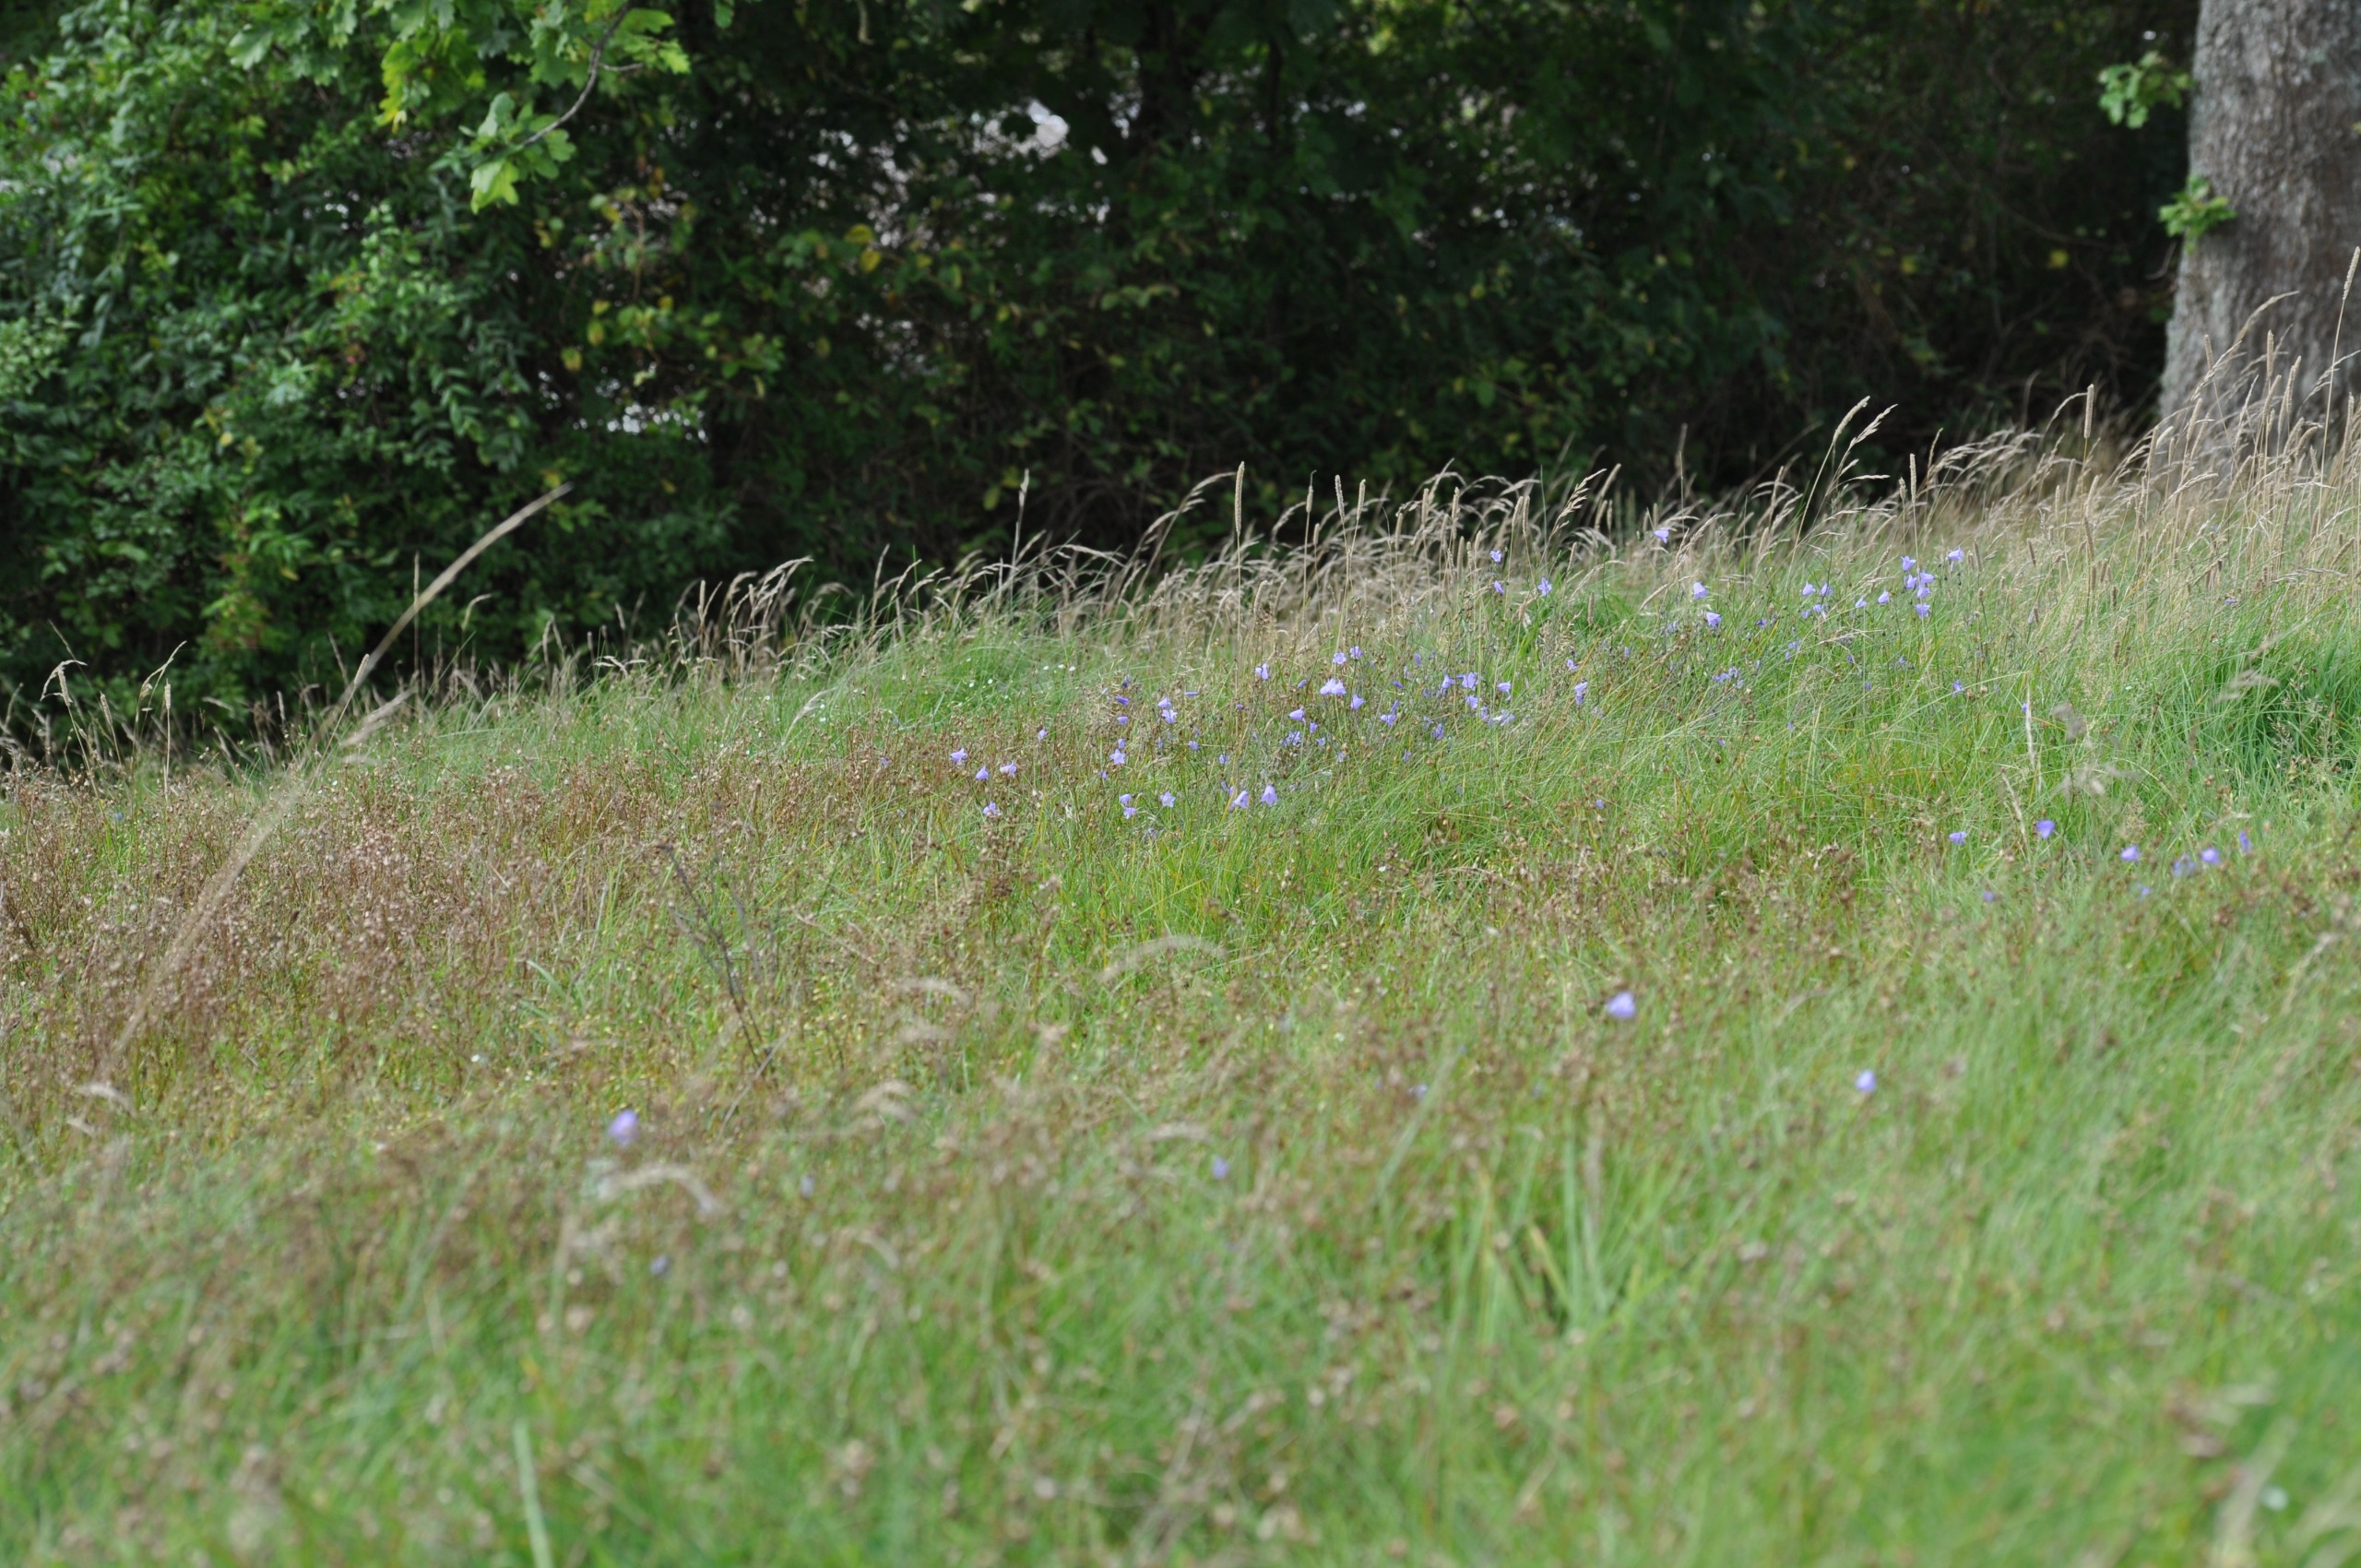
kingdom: Plantae
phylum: Tracheophyta
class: Magnoliopsida
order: Asterales
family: Campanulaceae
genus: Campanula
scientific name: Campanula rotundifolia
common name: Liden klokke
